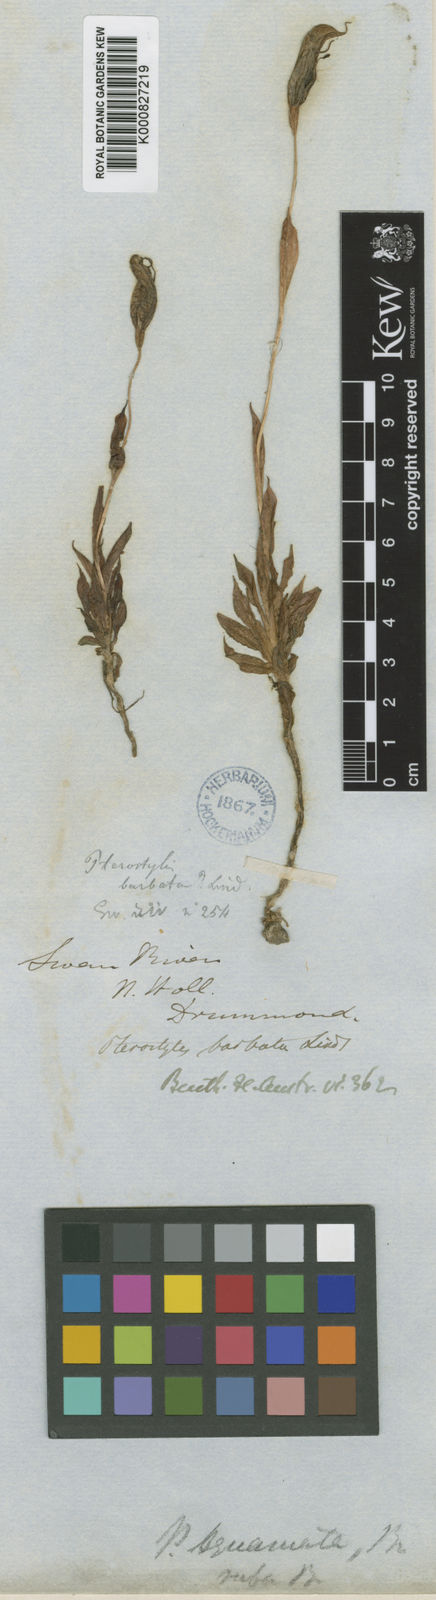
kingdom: Plantae
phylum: Tracheophyta
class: Liliopsida
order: Asparagales
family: Orchidaceae
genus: Pterostylis
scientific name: Pterostylis barbata
